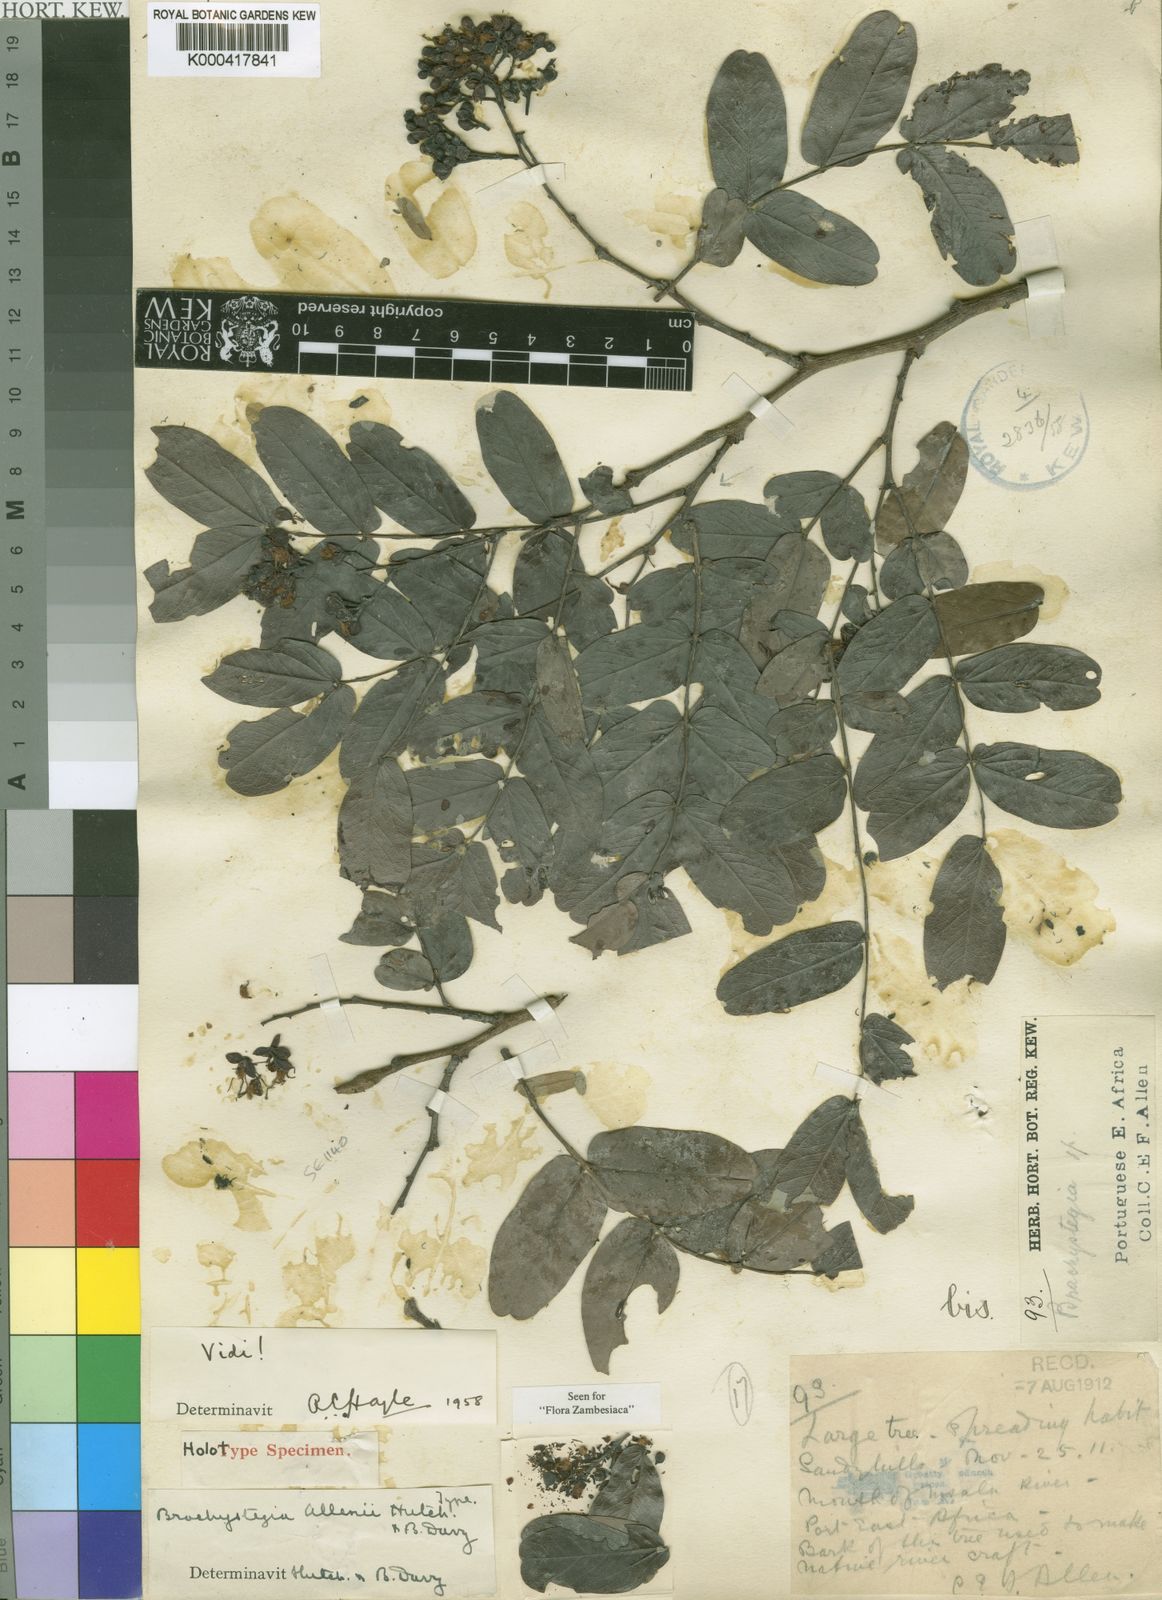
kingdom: Plantae
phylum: Tracheophyta
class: Magnoliopsida
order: Fabales
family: Fabaceae
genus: Brachystegia
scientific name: Brachystegia allenii
